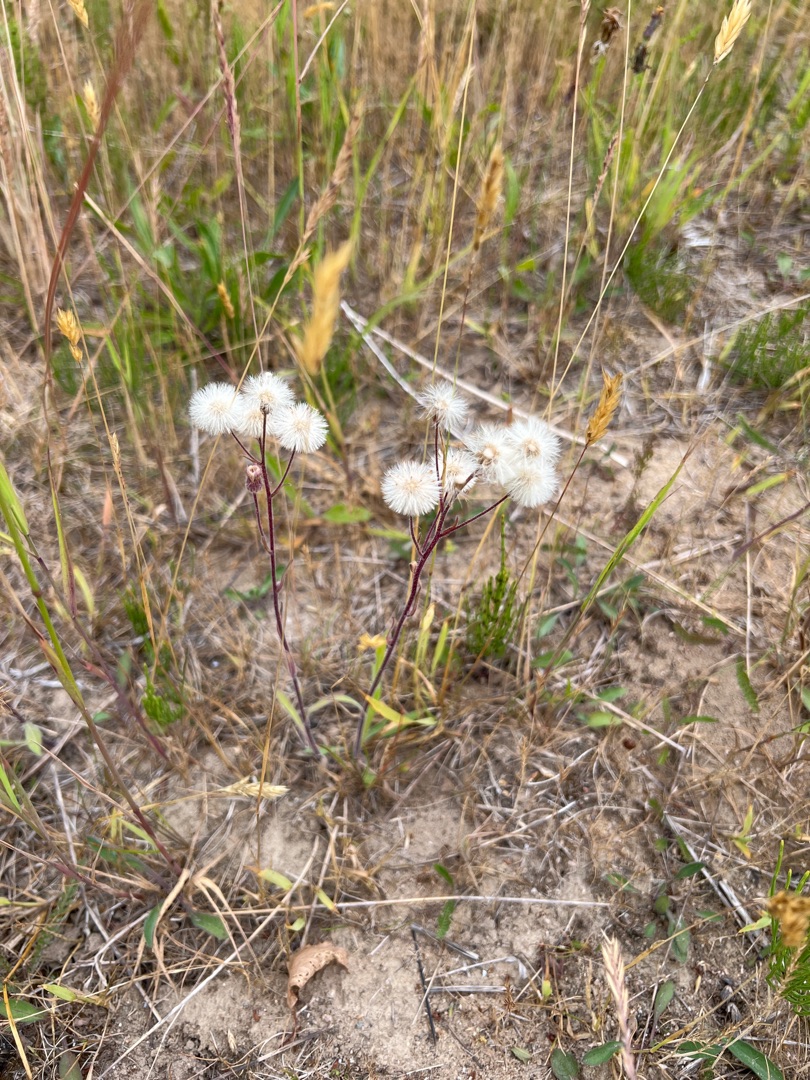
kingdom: Plantae
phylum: Tracheophyta
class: Magnoliopsida
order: Asterales
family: Asteraceae
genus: Erigeron
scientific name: Erigeron acris
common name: Bitter bakkestjerne
